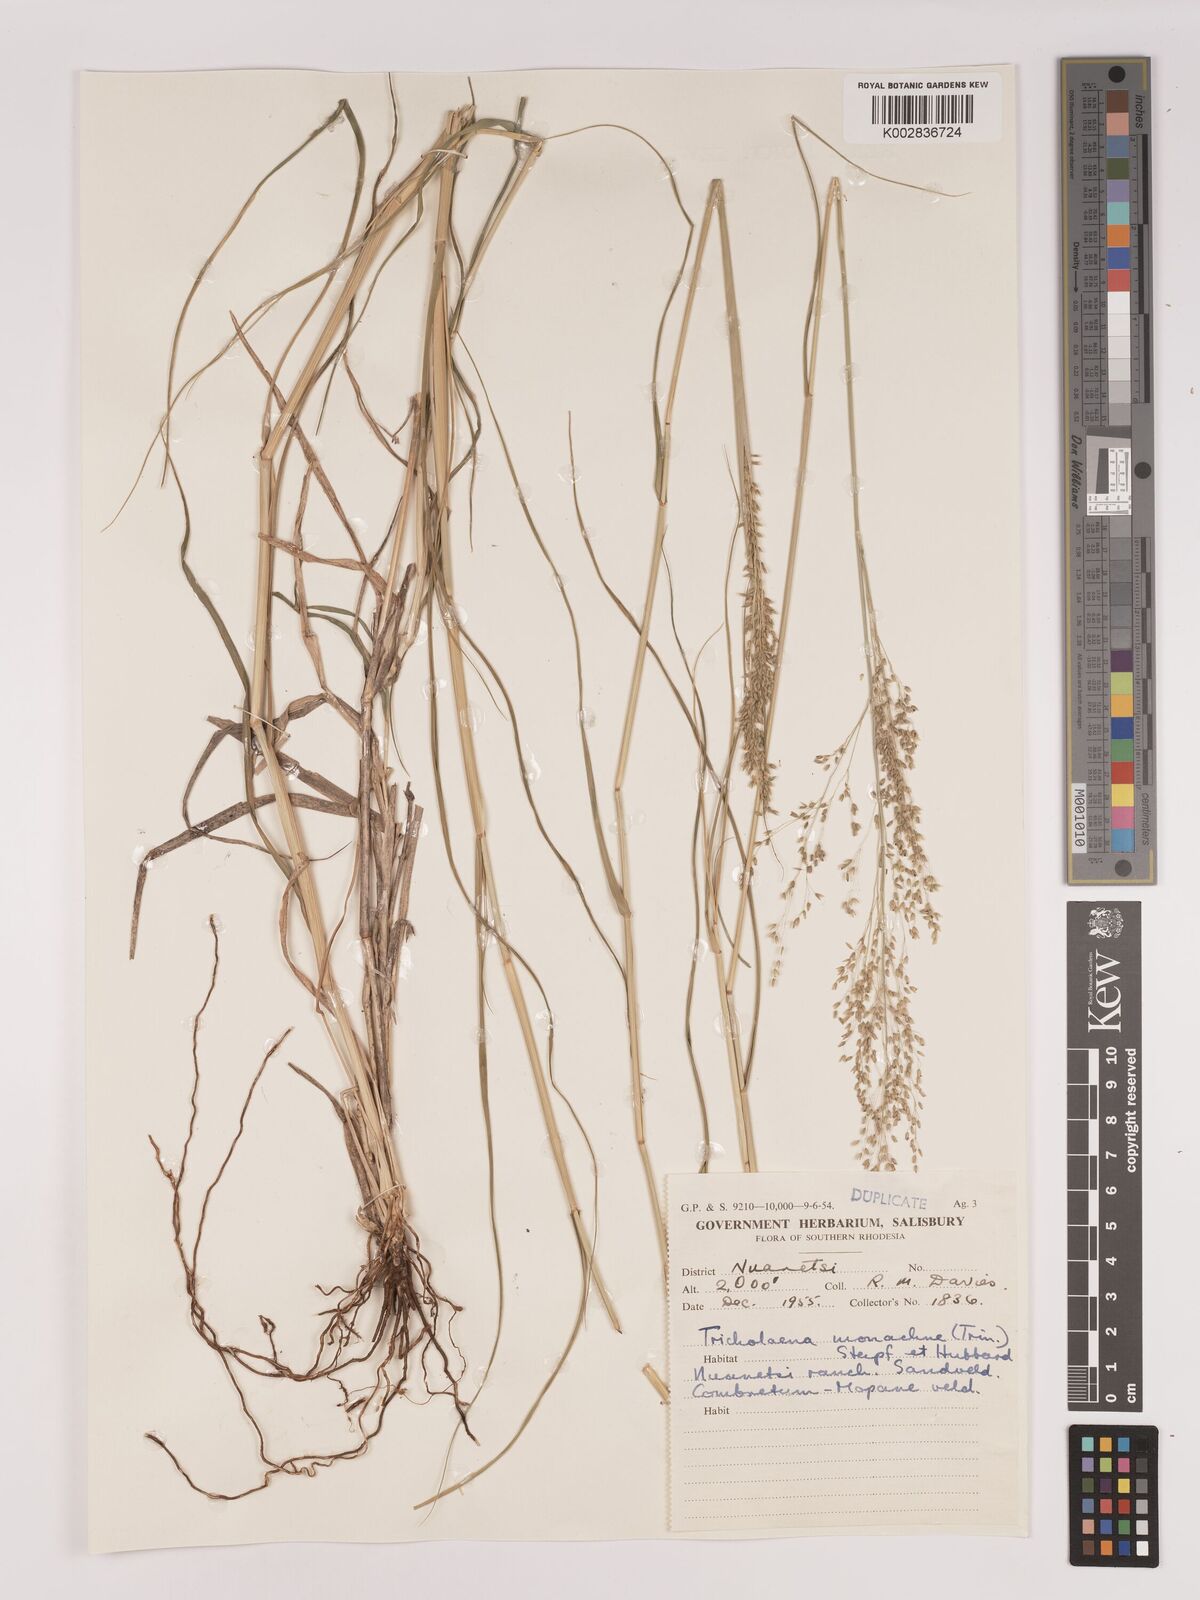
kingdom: Plantae
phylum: Tracheophyta
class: Liliopsida
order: Poales
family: Poaceae
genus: Tricholaena
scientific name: Tricholaena monachne
